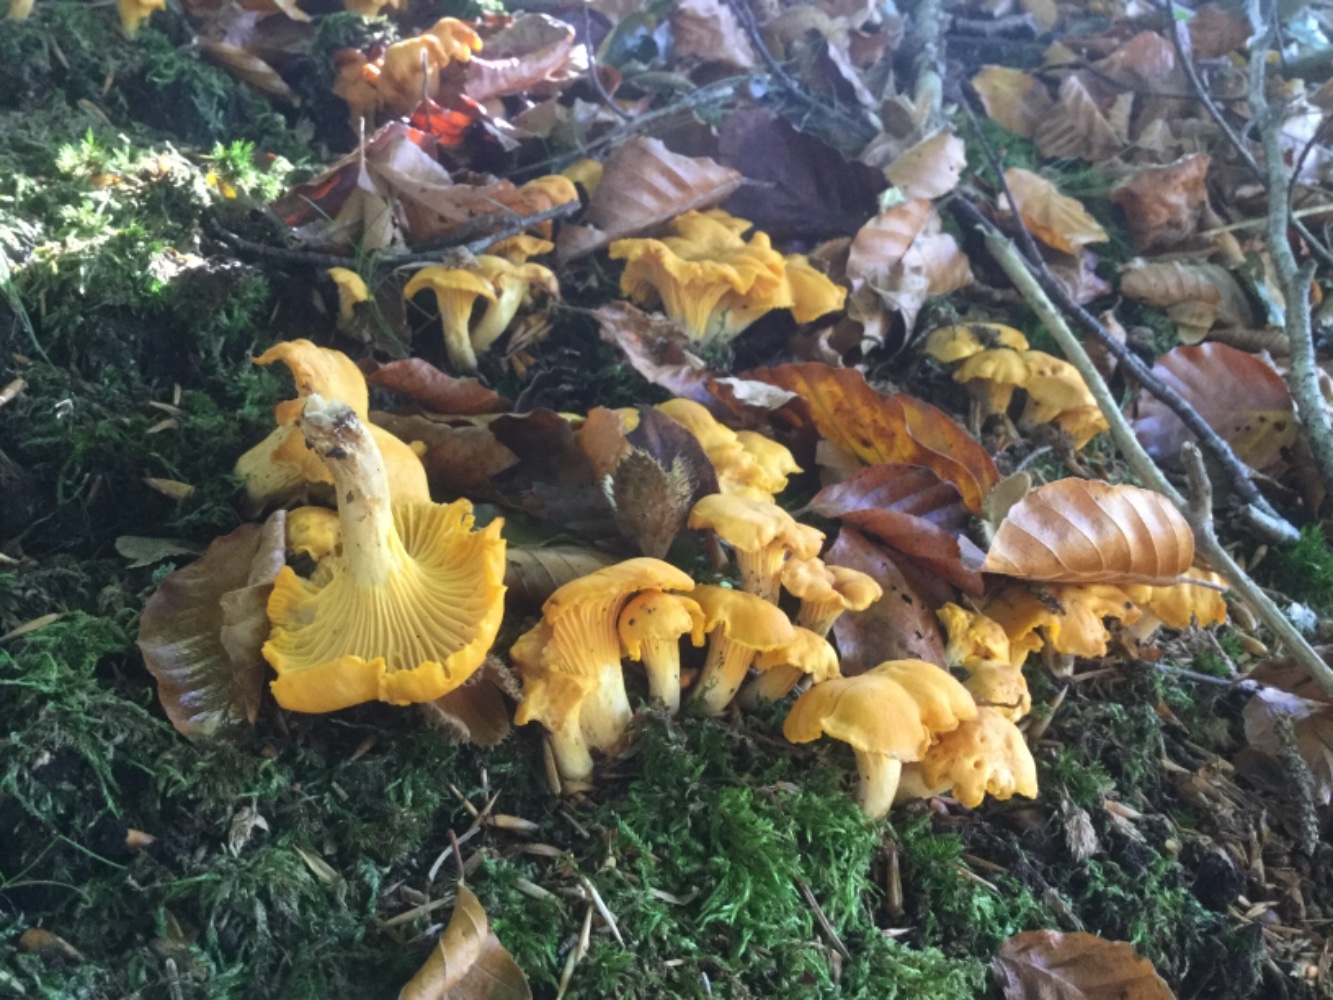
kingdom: Fungi
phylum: Basidiomycota
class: Agaricomycetes
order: Cantharellales
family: Hydnaceae
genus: Cantharellus
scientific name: Cantharellus cibarius
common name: almindelig kantarel
